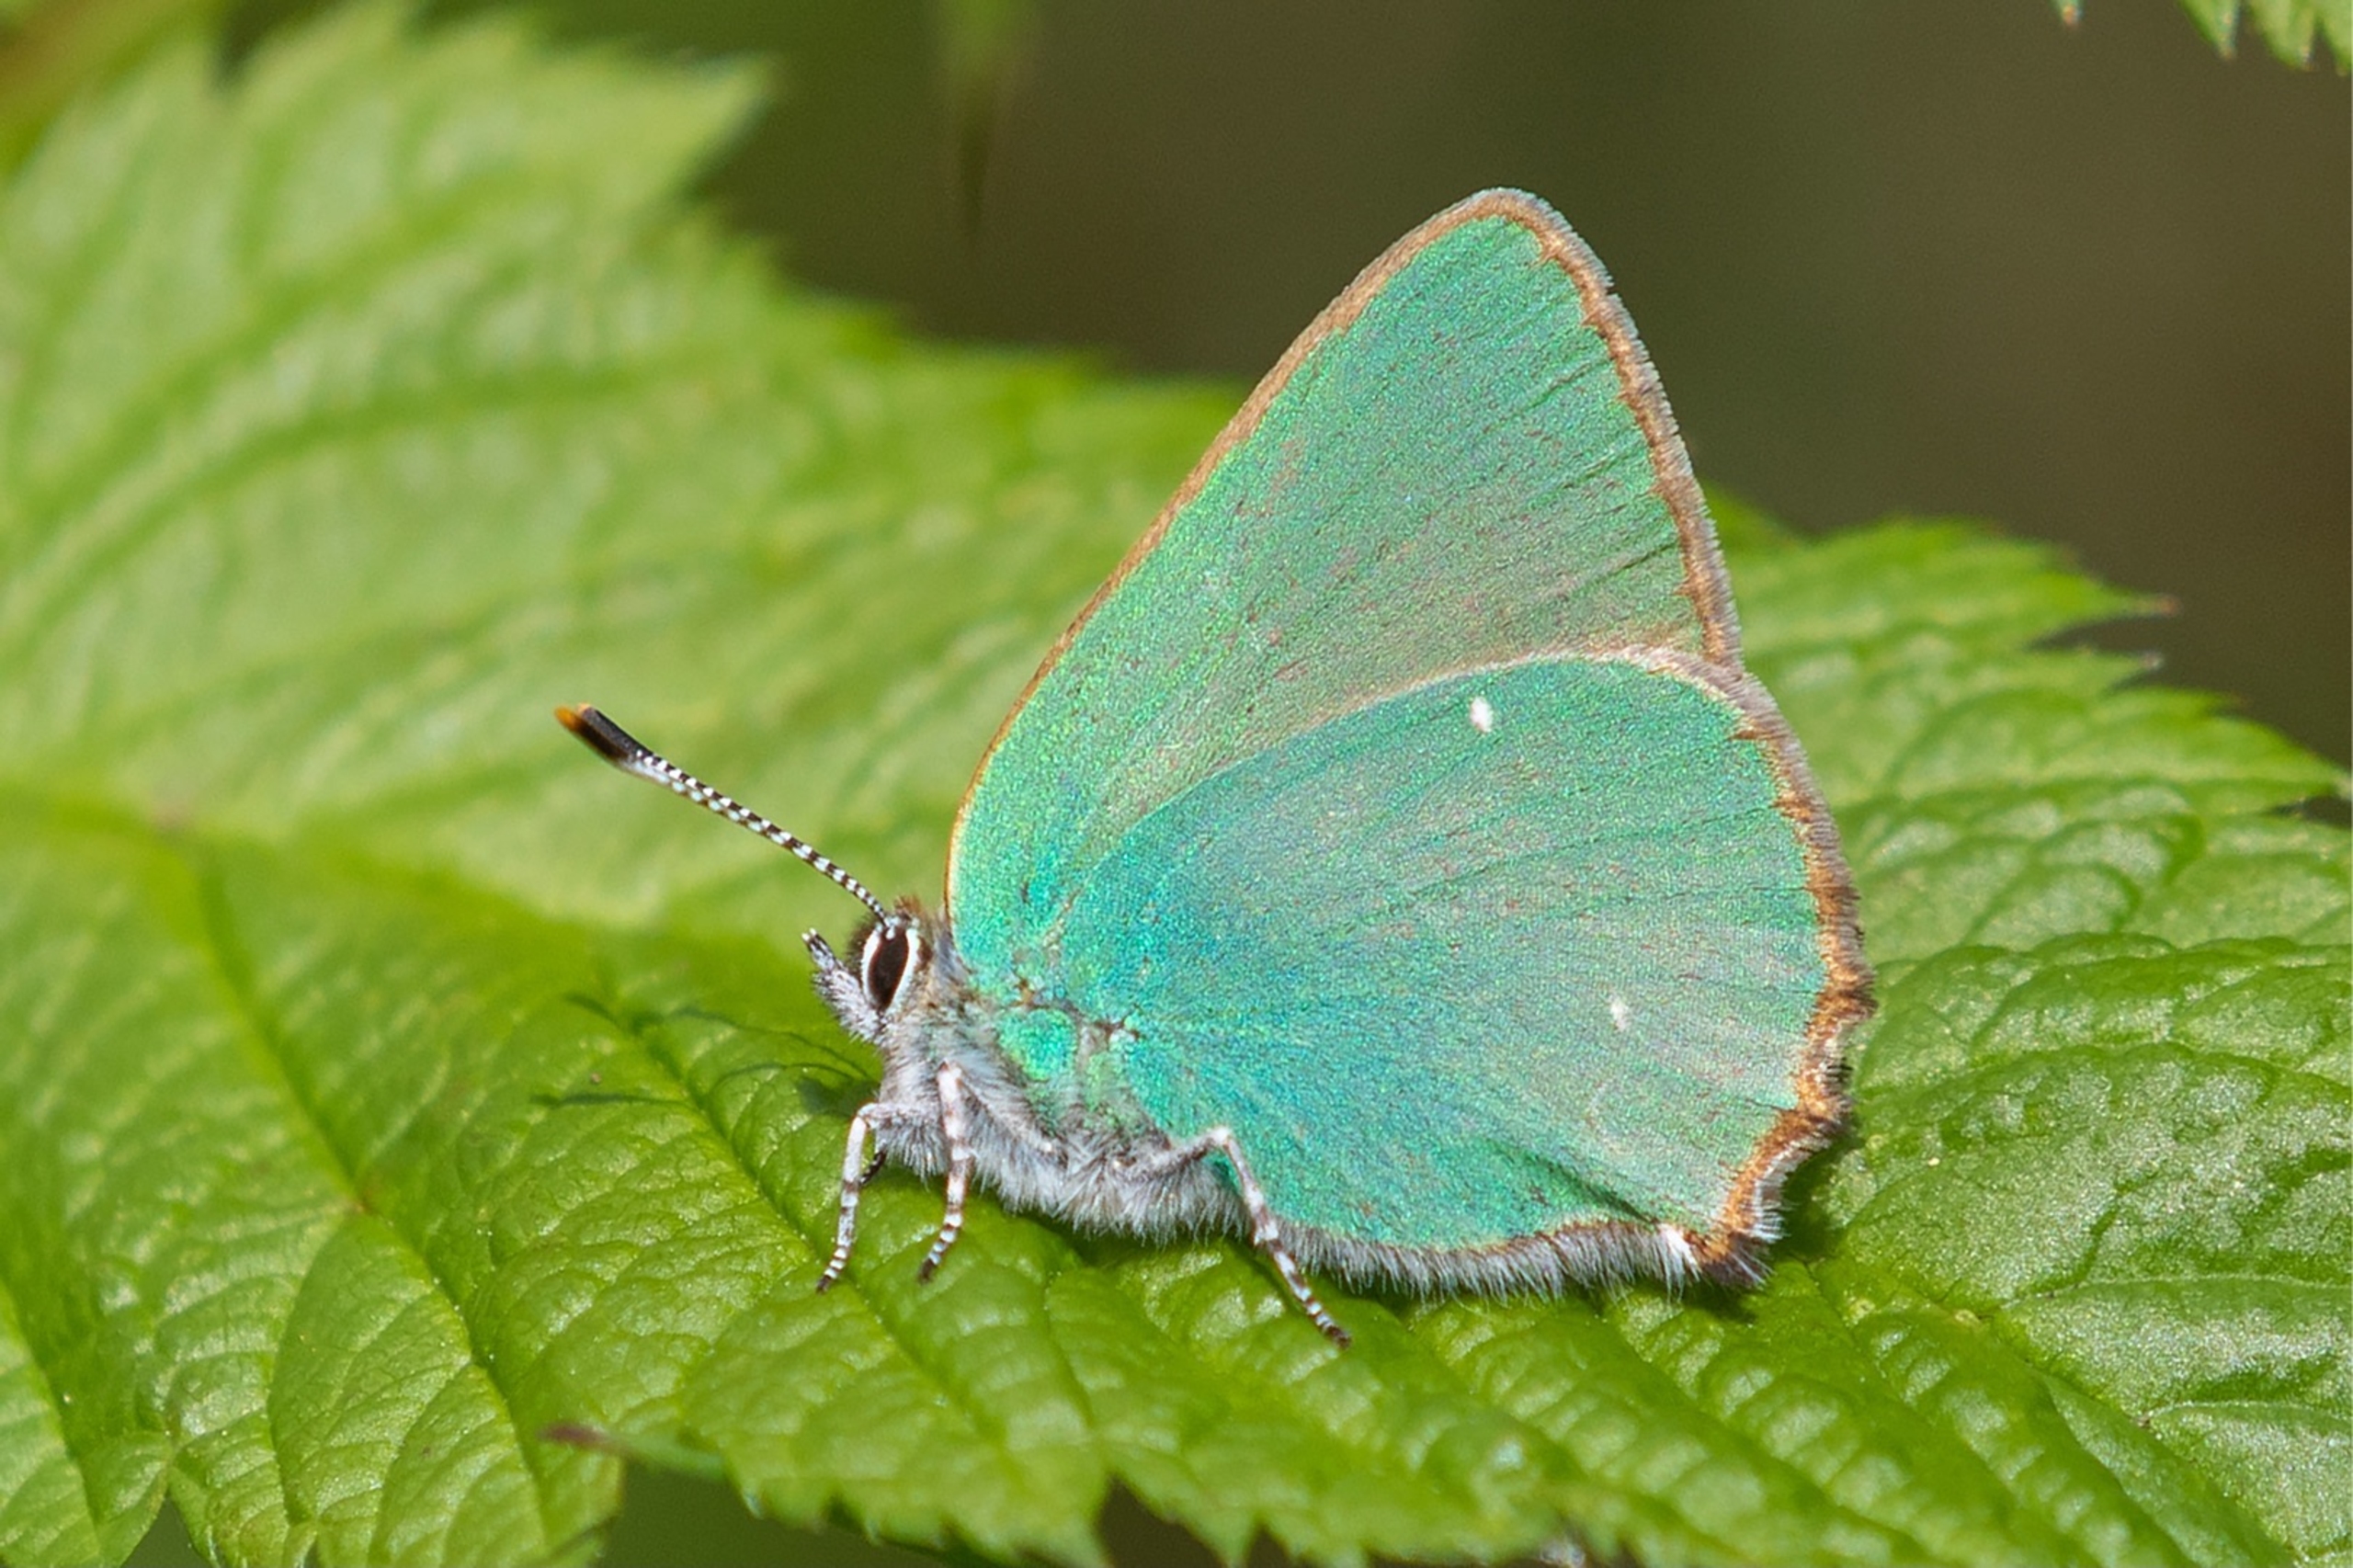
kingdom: Animalia
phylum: Arthropoda
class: Insecta
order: Lepidoptera
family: Lycaenidae
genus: Callophrys
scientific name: Callophrys rubi
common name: Grøn busksommerfugl
